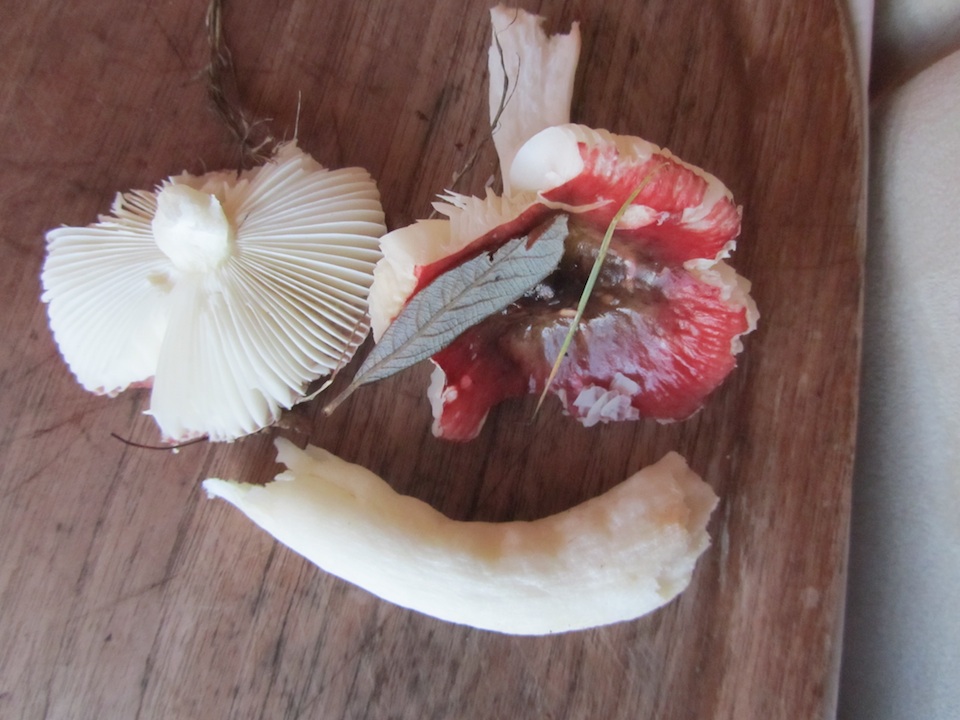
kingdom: Fungi
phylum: Basidiomycota
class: Agaricomycetes
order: Russulales
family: Russulaceae
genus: Russula
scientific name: Russula laccata
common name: klit-skørhat
